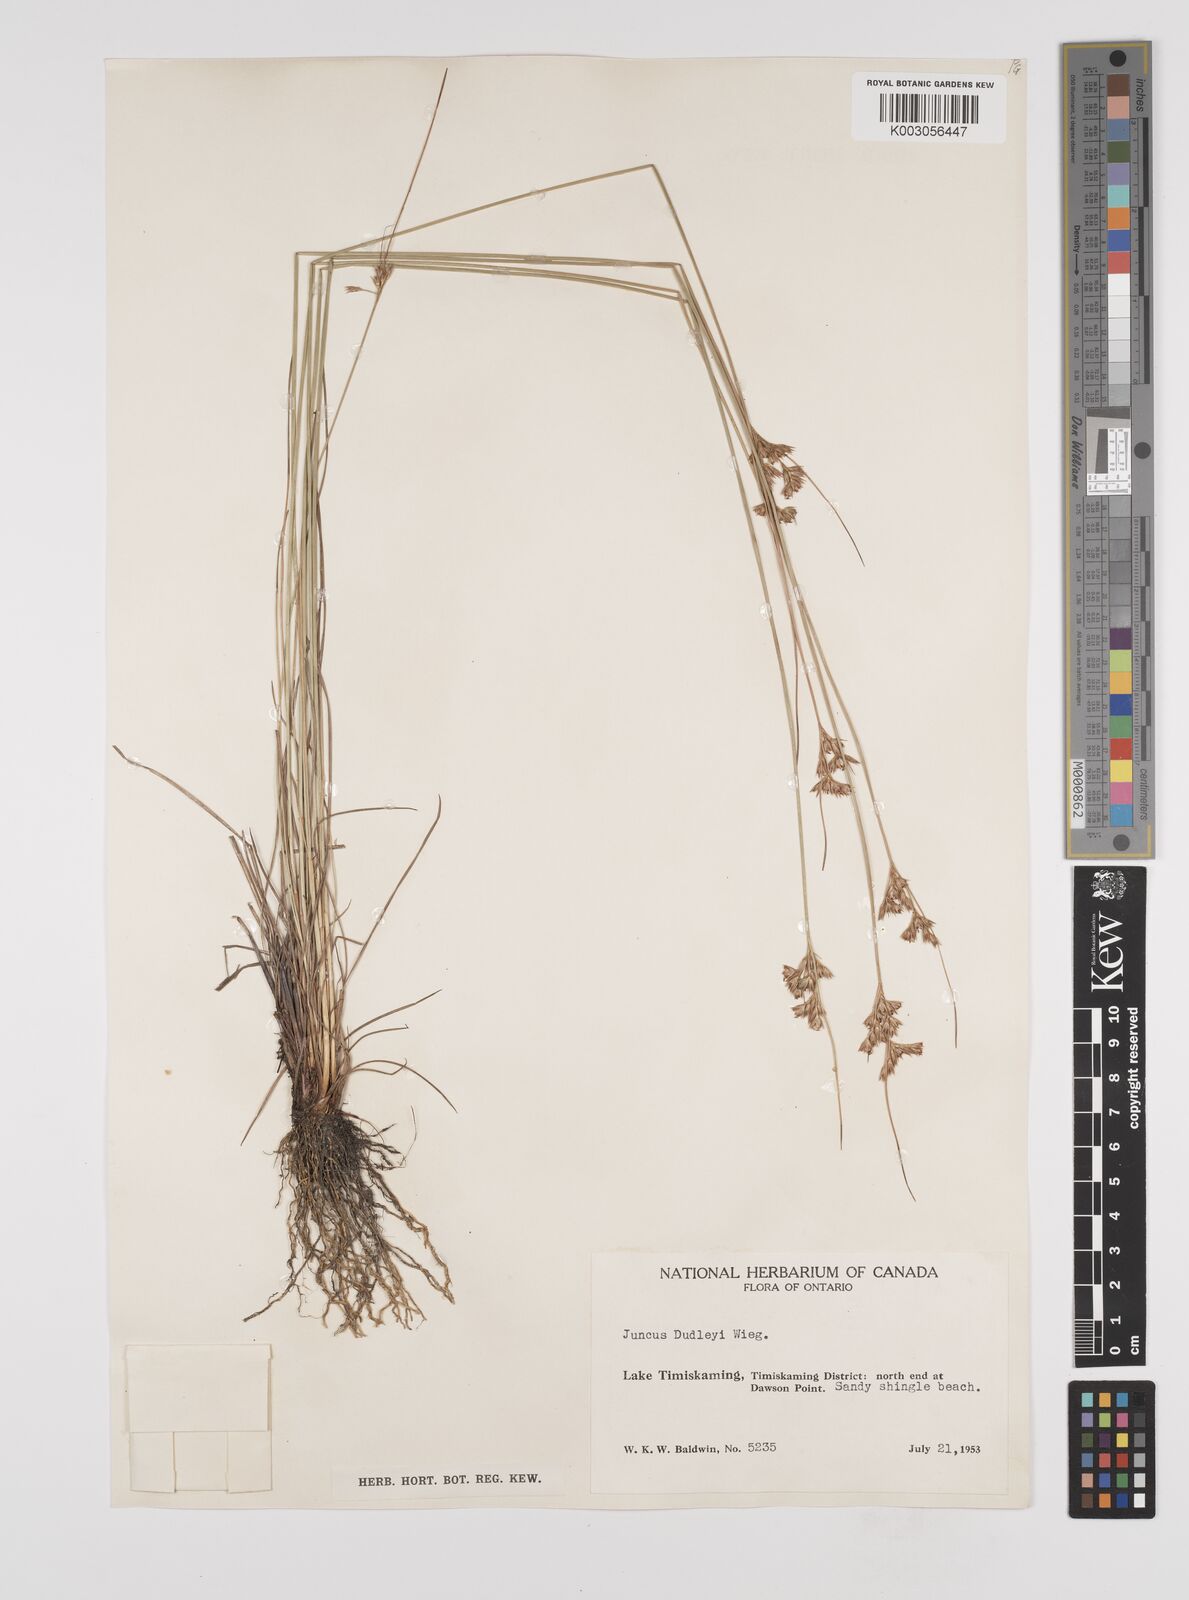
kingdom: Plantae
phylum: Tracheophyta
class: Liliopsida
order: Poales
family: Juncaceae
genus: Juncus
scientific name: Juncus dudleyi
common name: Dudley's rush
